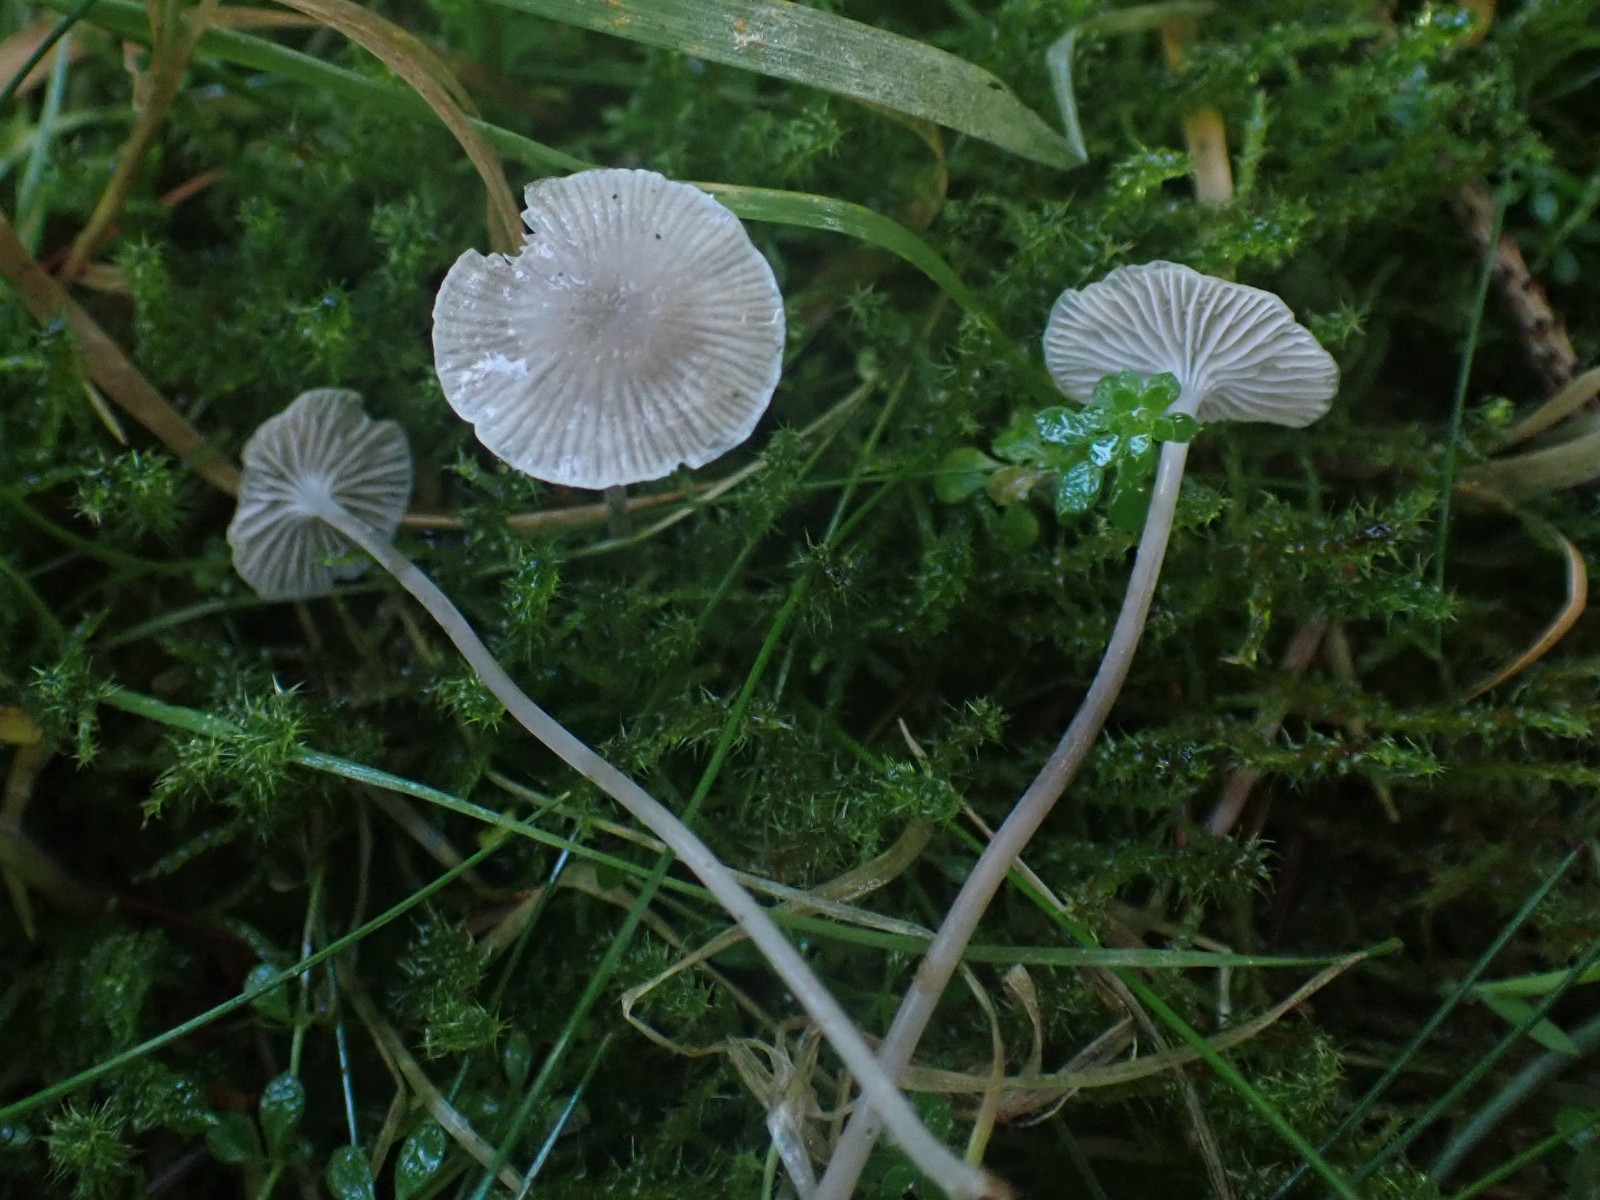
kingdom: Fungi
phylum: Basidiomycota
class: Agaricomycetes
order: Agaricales
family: Mycenaceae
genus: Mycena
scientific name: Mycena cinerella
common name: mel-huesvamp
